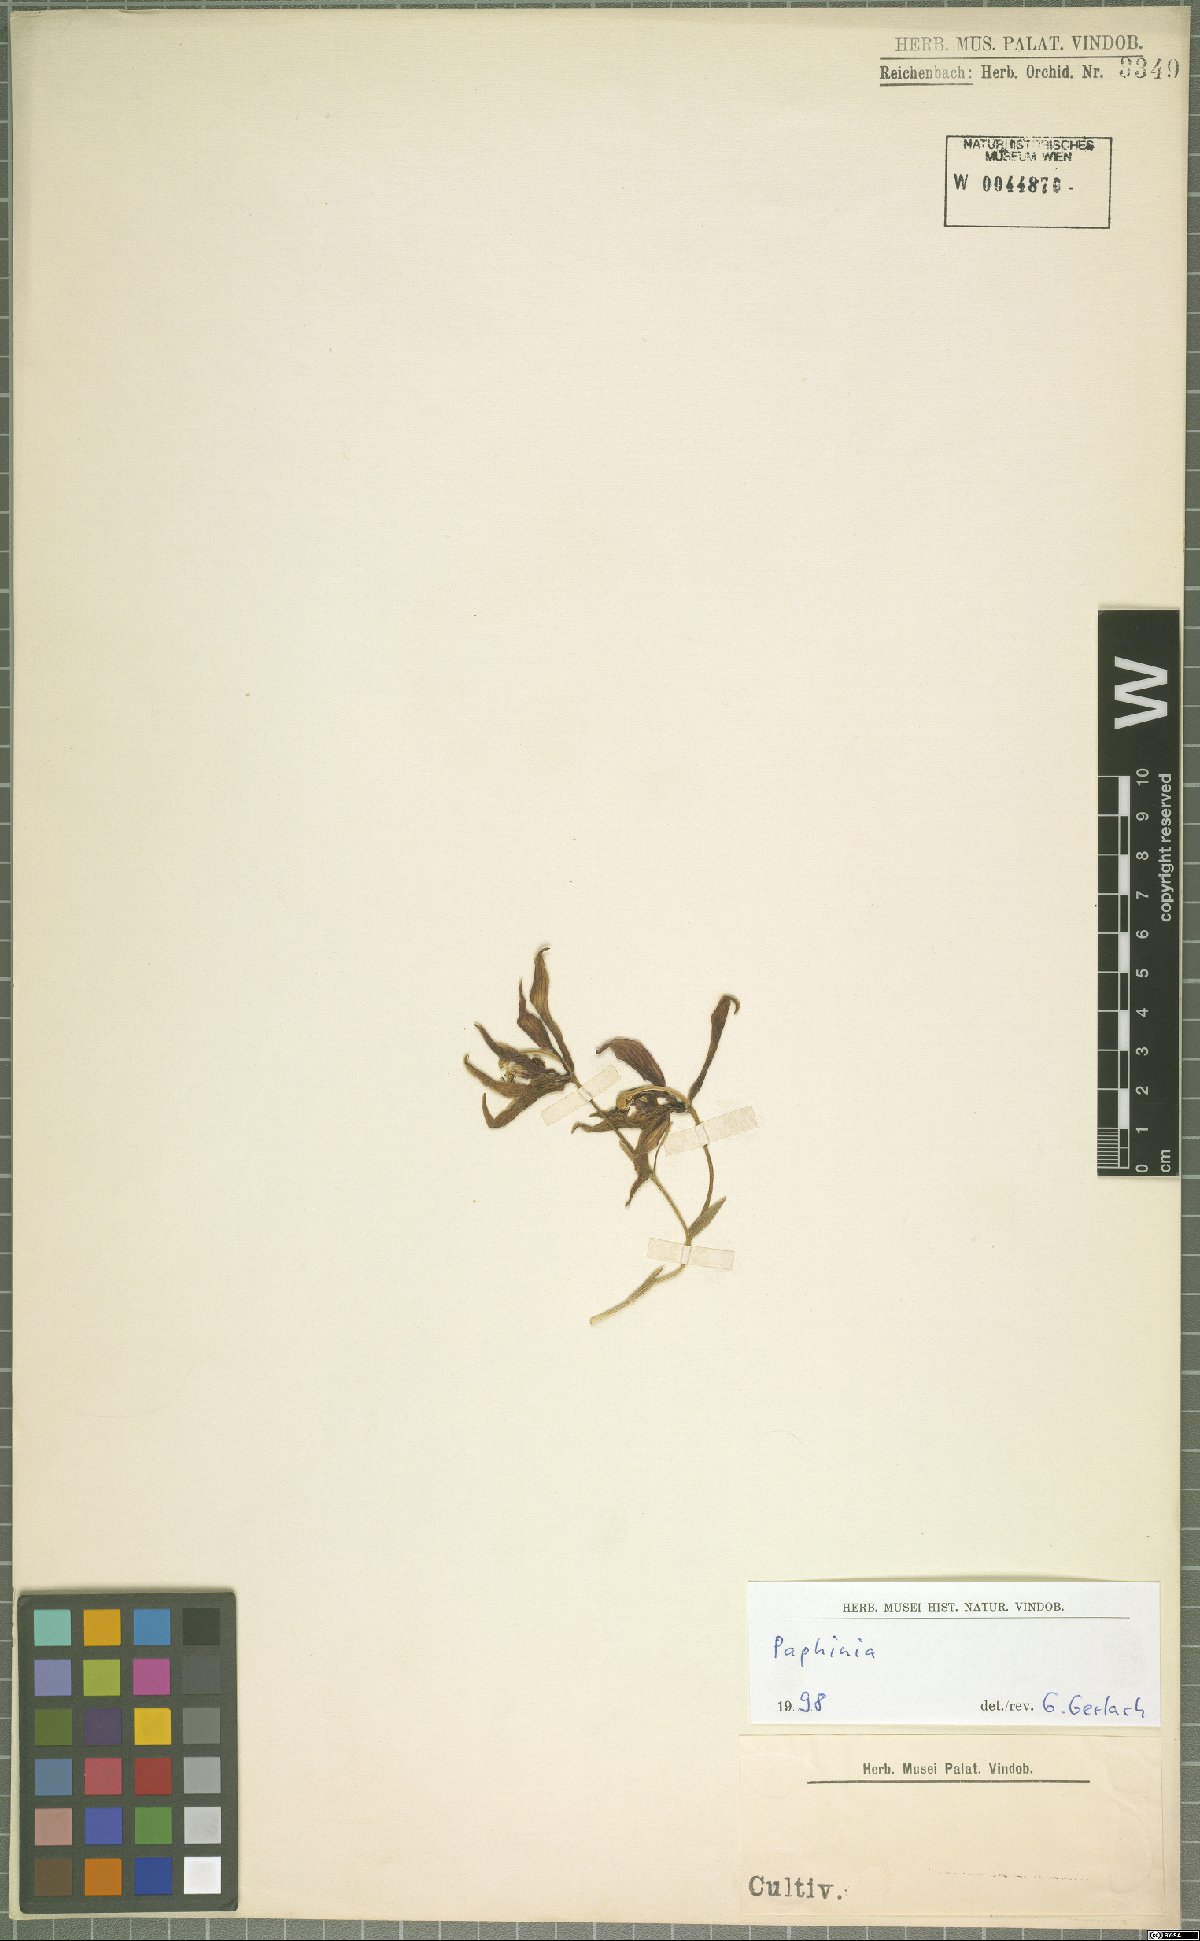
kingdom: Plantae
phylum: Tracheophyta
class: Liliopsida
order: Asparagales
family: Orchidaceae
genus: Paphinia
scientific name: Paphinia
